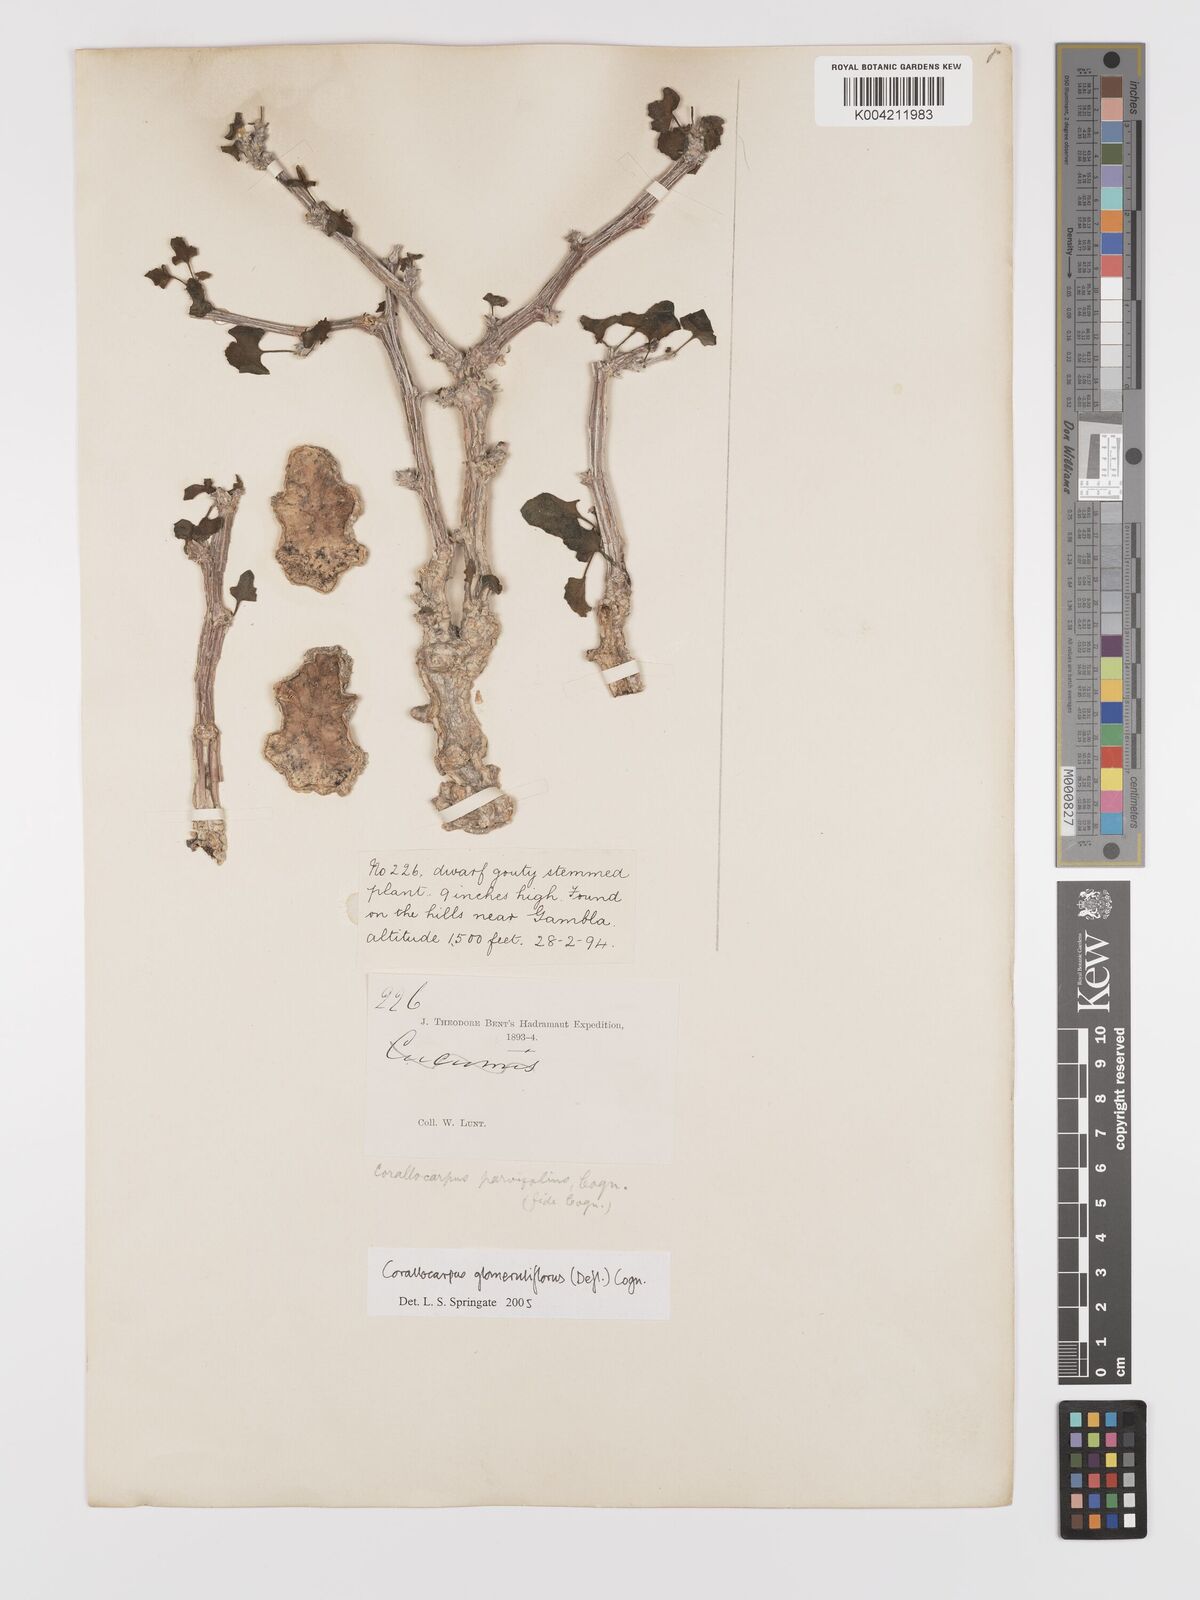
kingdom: Plantae
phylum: Tracheophyta
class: Magnoliopsida
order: Cucurbitales
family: Cucurbitaceae
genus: Corallocarpus
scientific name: Corallocarpus glomeruliflorus
